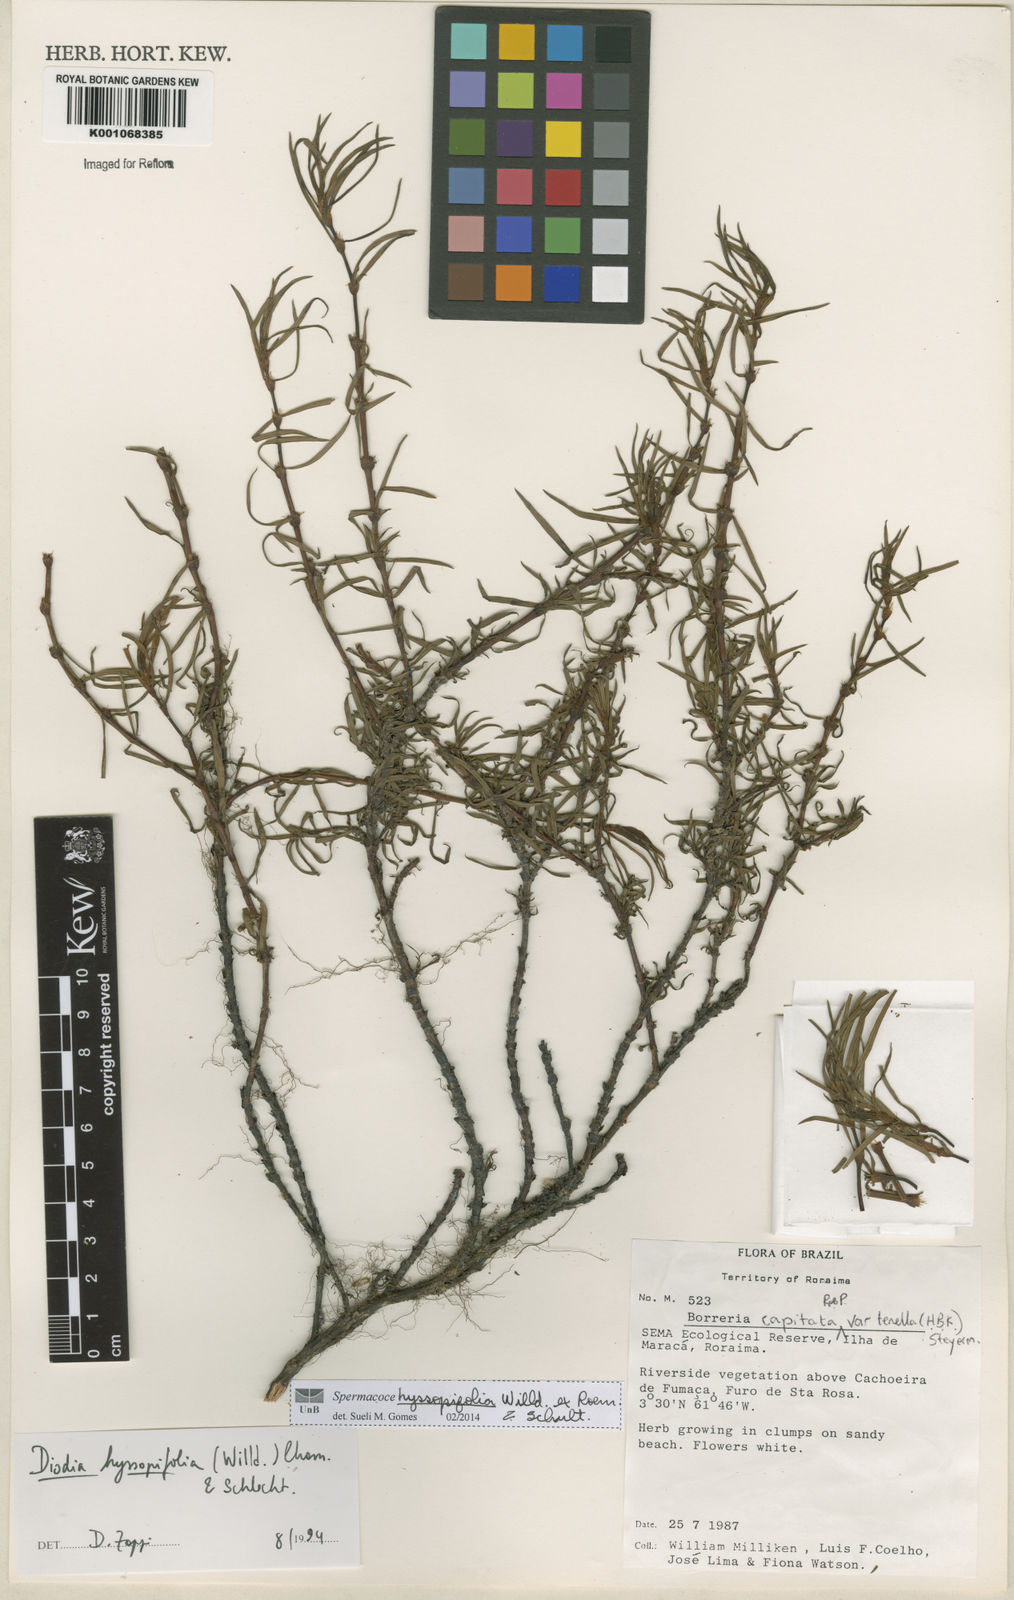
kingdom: Plantae
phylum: Tracheophyta
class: Magnoliopsida
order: Gentianales
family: Rubiaceae
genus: Spermacoce
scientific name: Spermacoce
